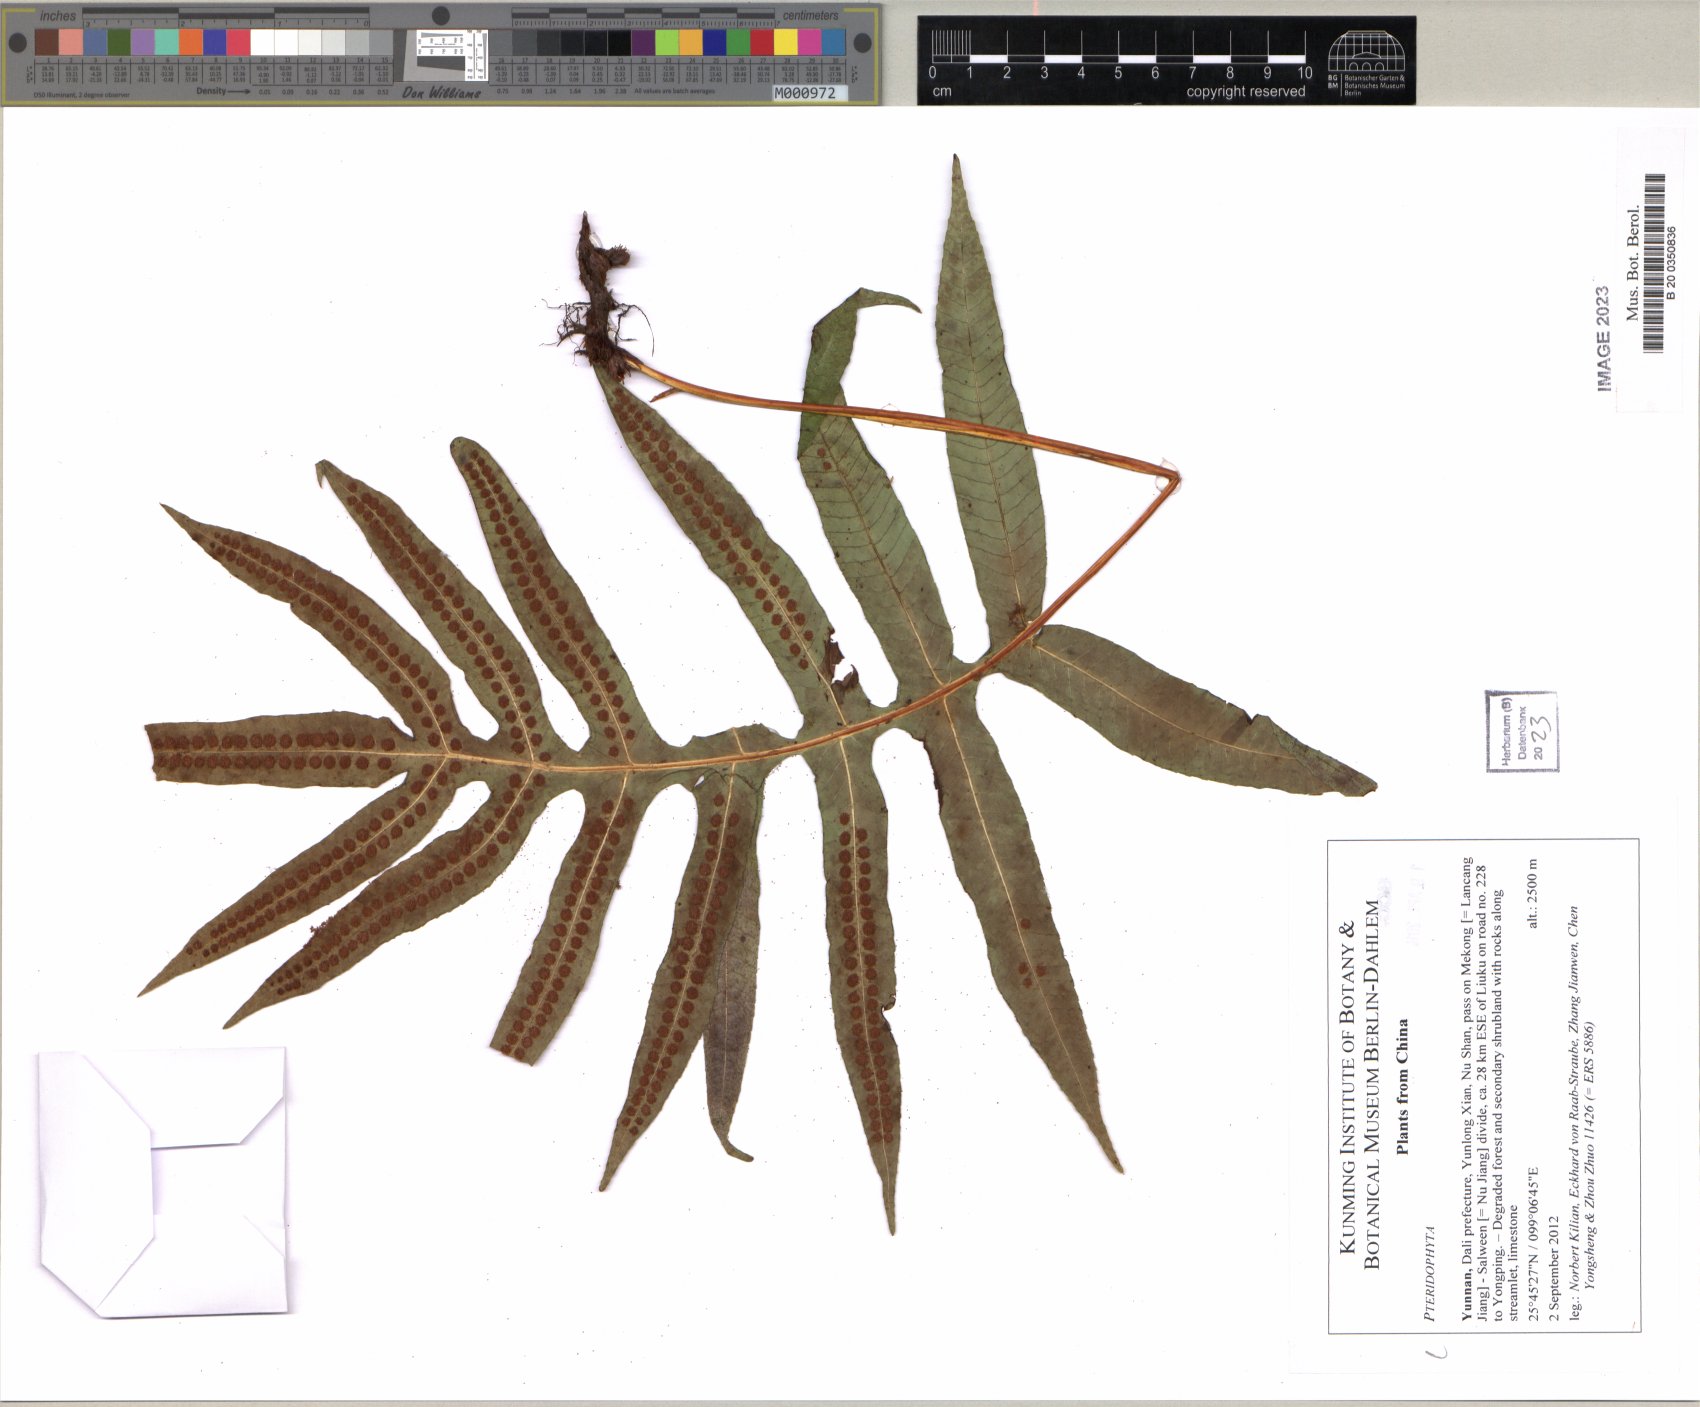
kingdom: Plantae
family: Pteridophyta
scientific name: Pteridophyta
